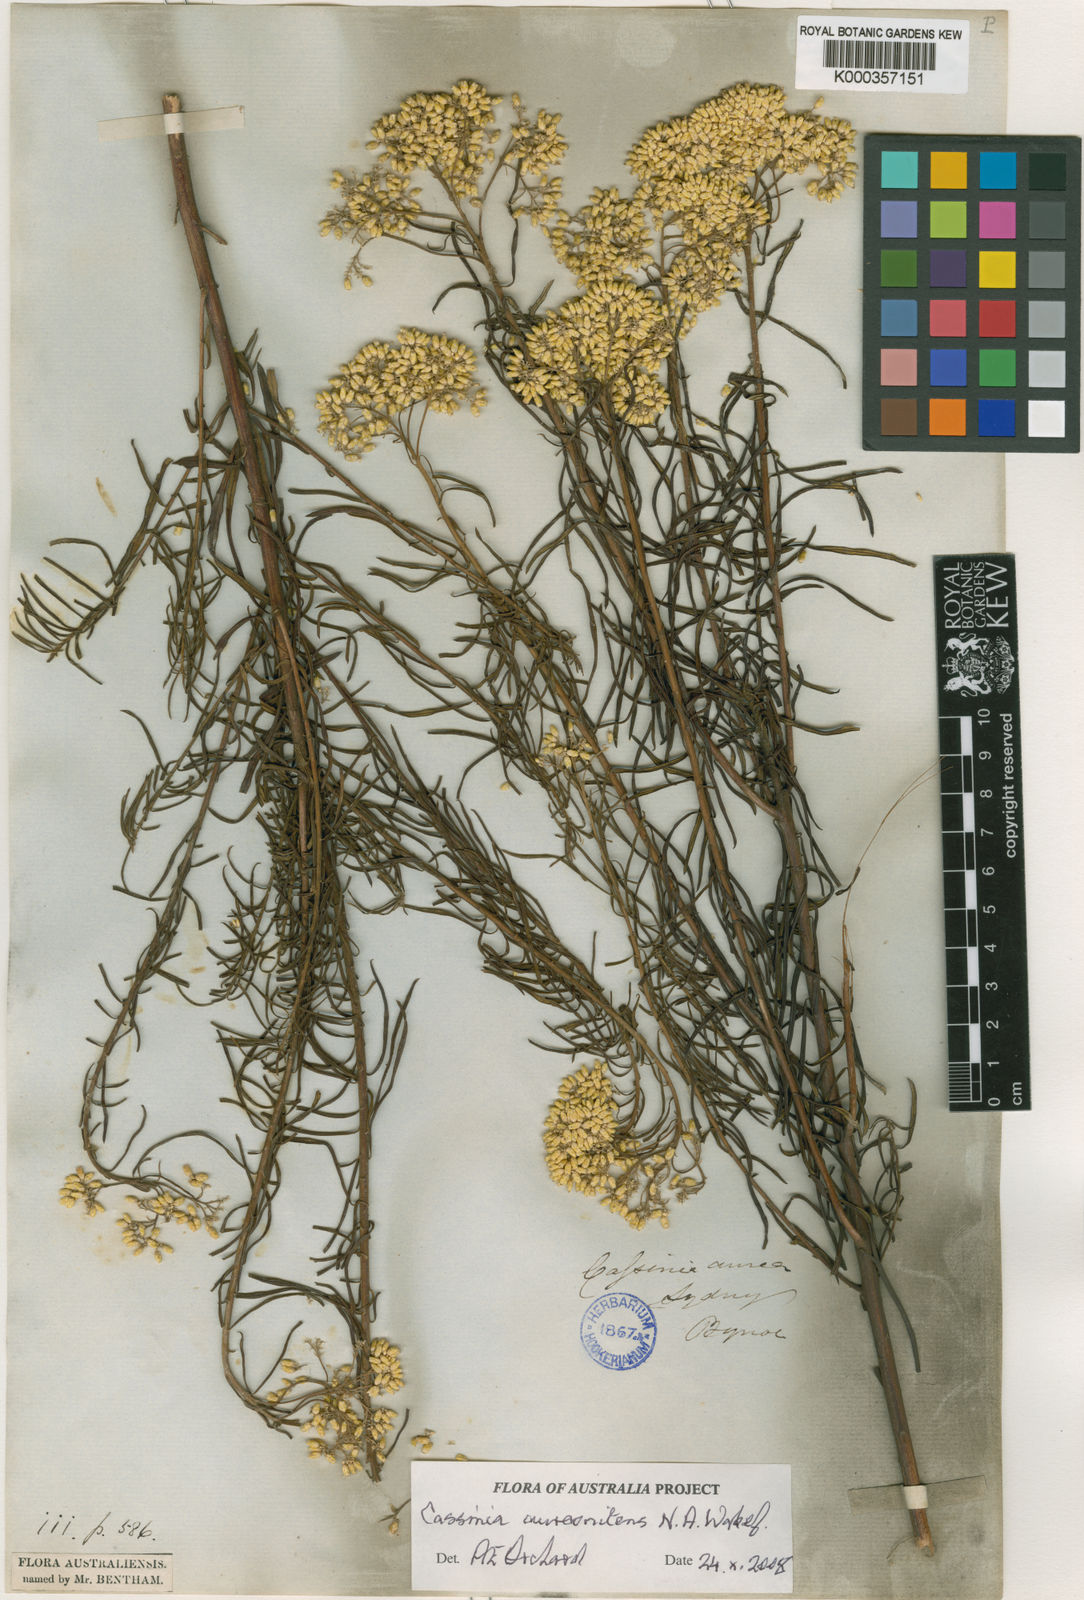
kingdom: Plantae
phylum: Tracheophyta
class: Magnoliopsida
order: Asterales
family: Asteraceae
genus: Cassinia
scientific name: Cassinia aureonitens
